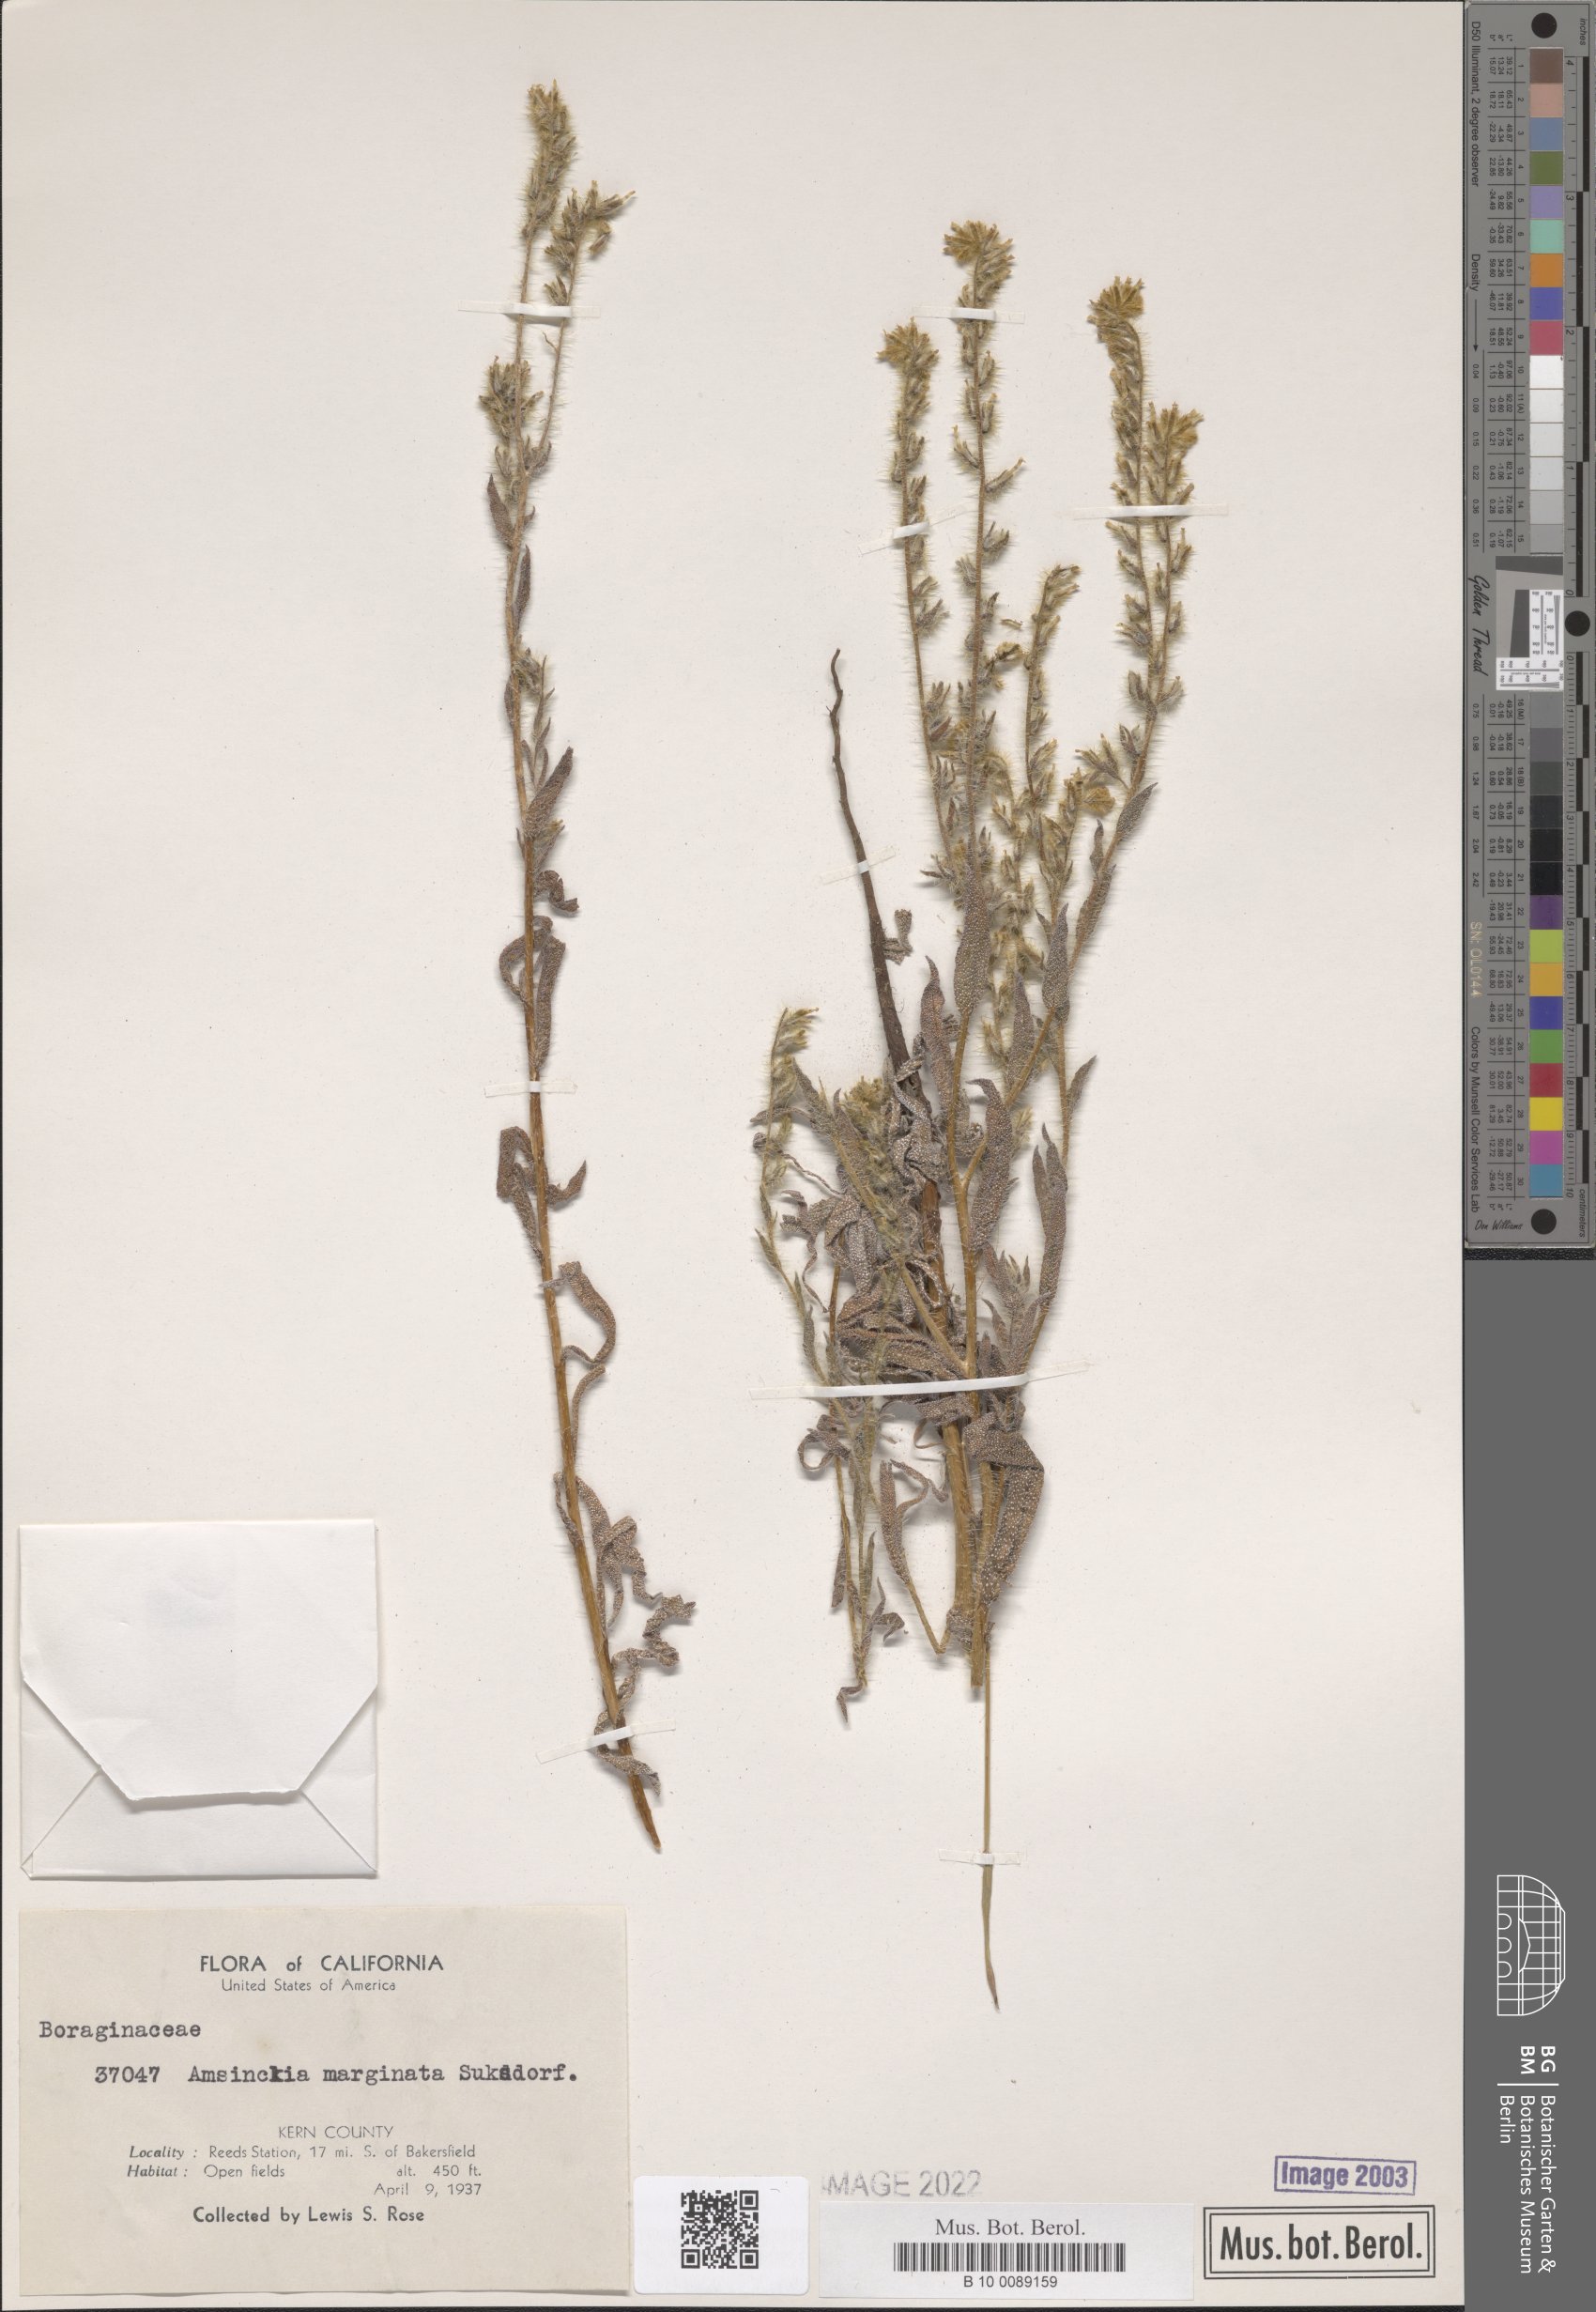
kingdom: Plantae
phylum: Tracheophyta
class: Magnoliopsida
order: Boraginales
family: Boraginaceae
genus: Amsinckia
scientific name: Amsinckia marginata
